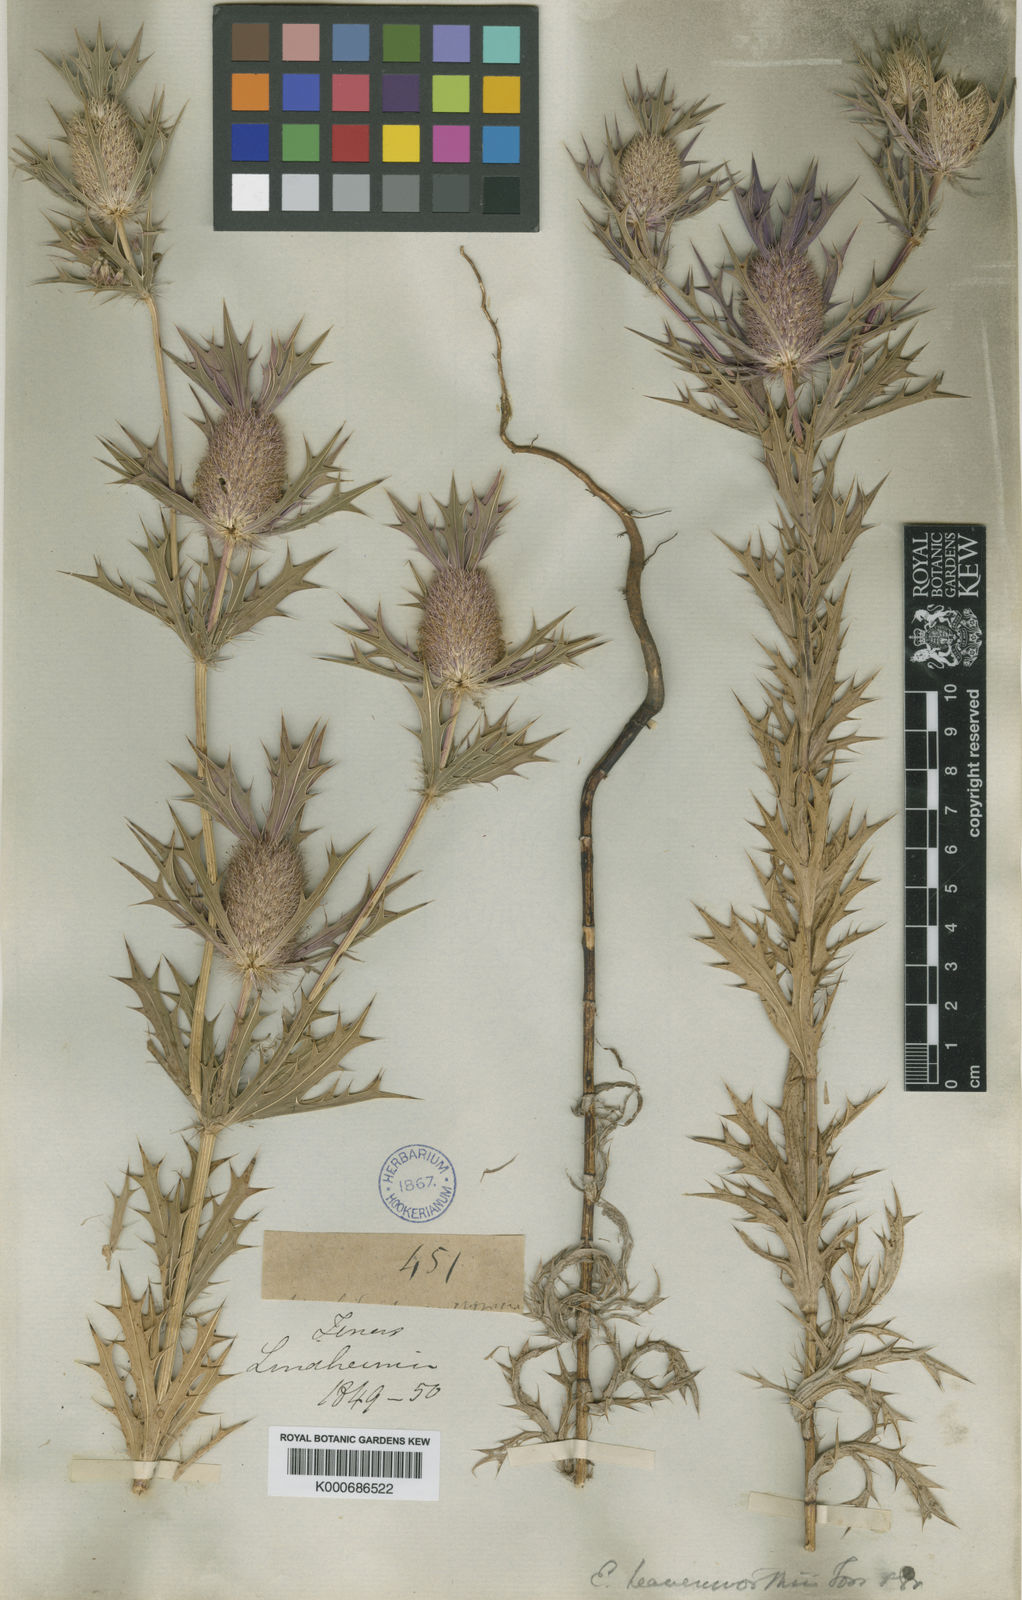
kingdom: Plantae
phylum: Tracheophyta
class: Magnoliopsida
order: Apiales
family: Apiaceae
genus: Eryngium
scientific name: Eryngium leavenworthii
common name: Leavenworth's eryngo
